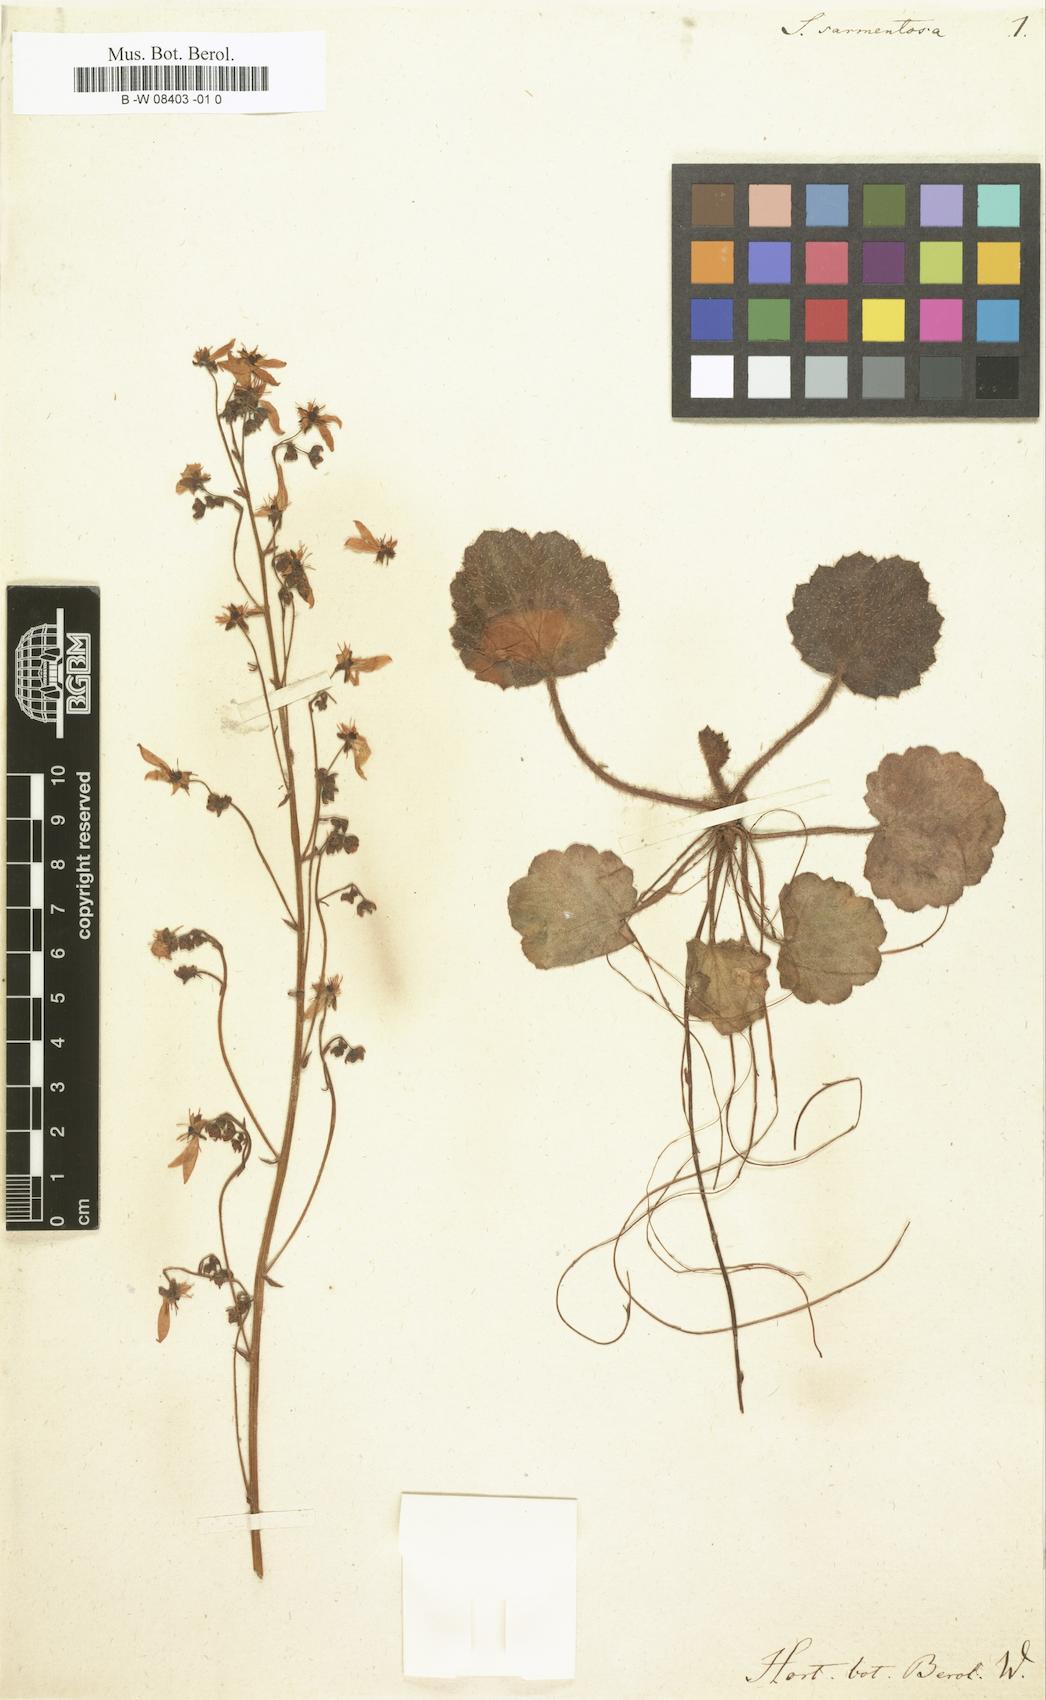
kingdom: Plantae
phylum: Tracheophyta
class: Magnoliopsida
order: Saxifragales
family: Saxifragaceae
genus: Saxifraga
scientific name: Saxifraga stolonifera
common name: Creeping saxifrage
